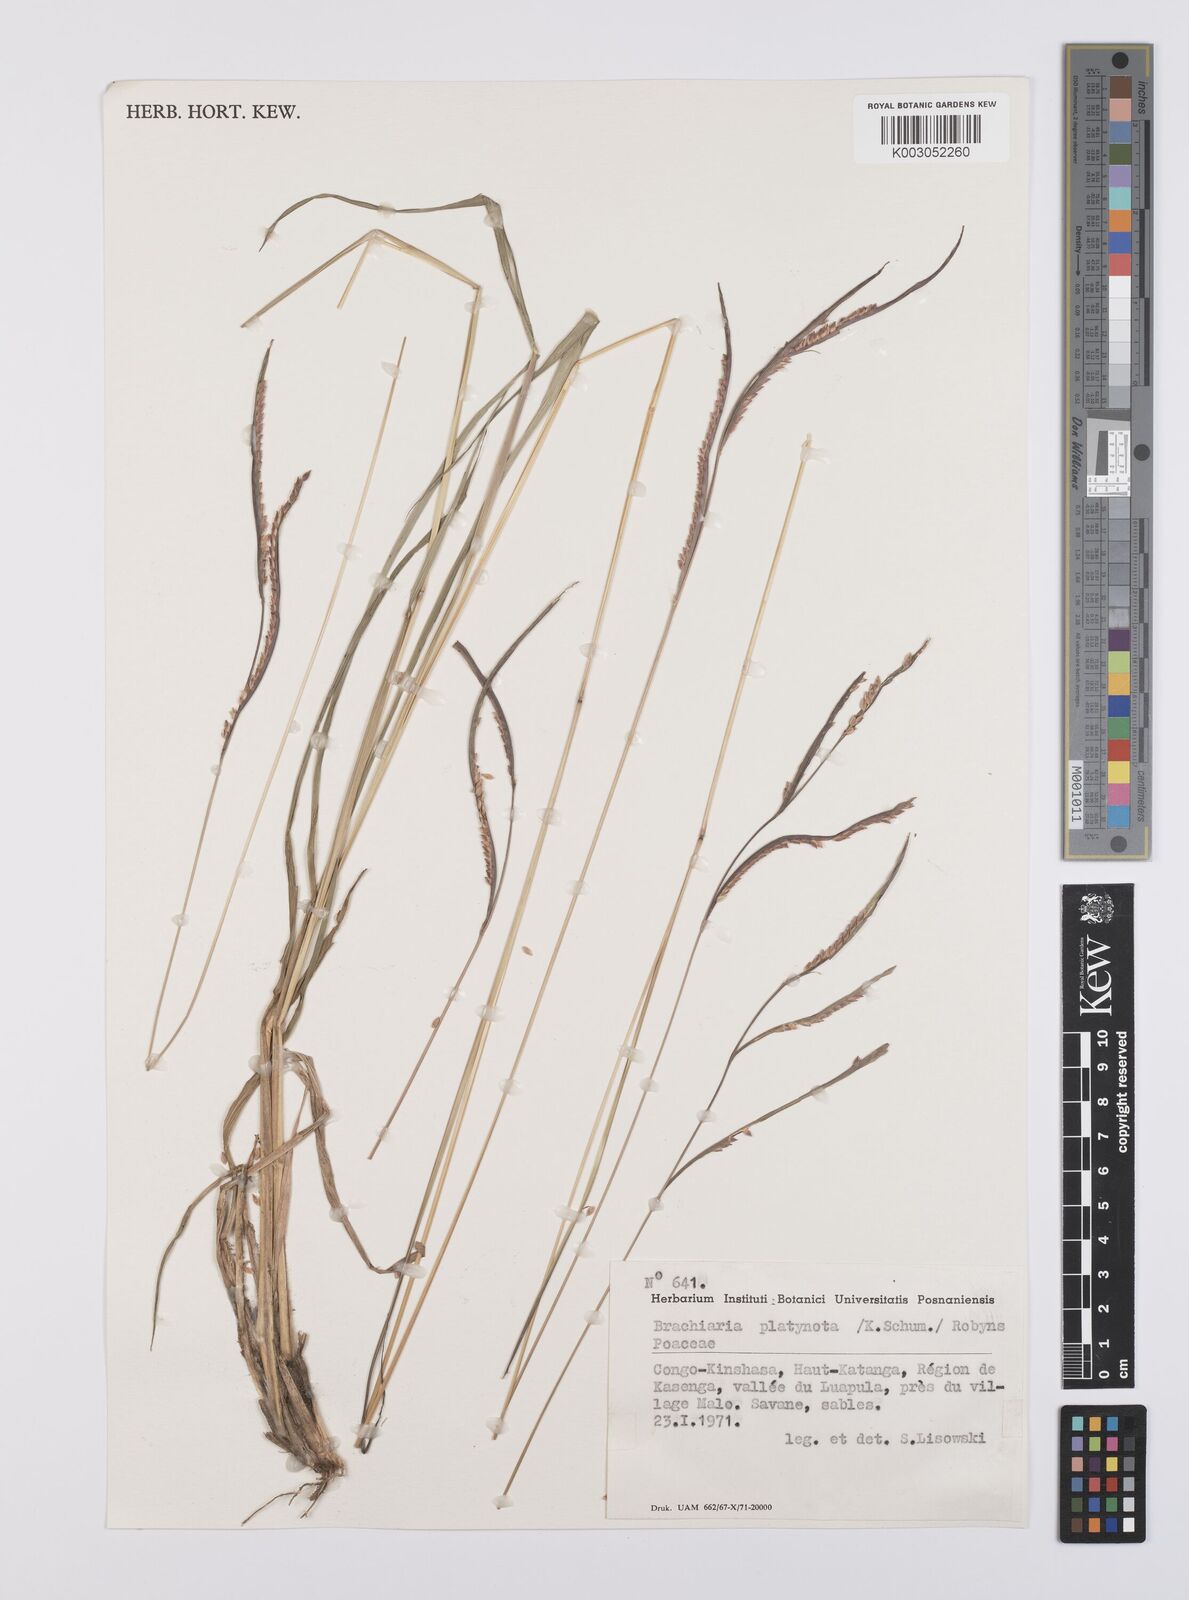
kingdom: Plantae
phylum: Tracheophyta
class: Liliopsida
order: Poales
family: Poaceae
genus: Urochloa
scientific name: Urochloa platynota
